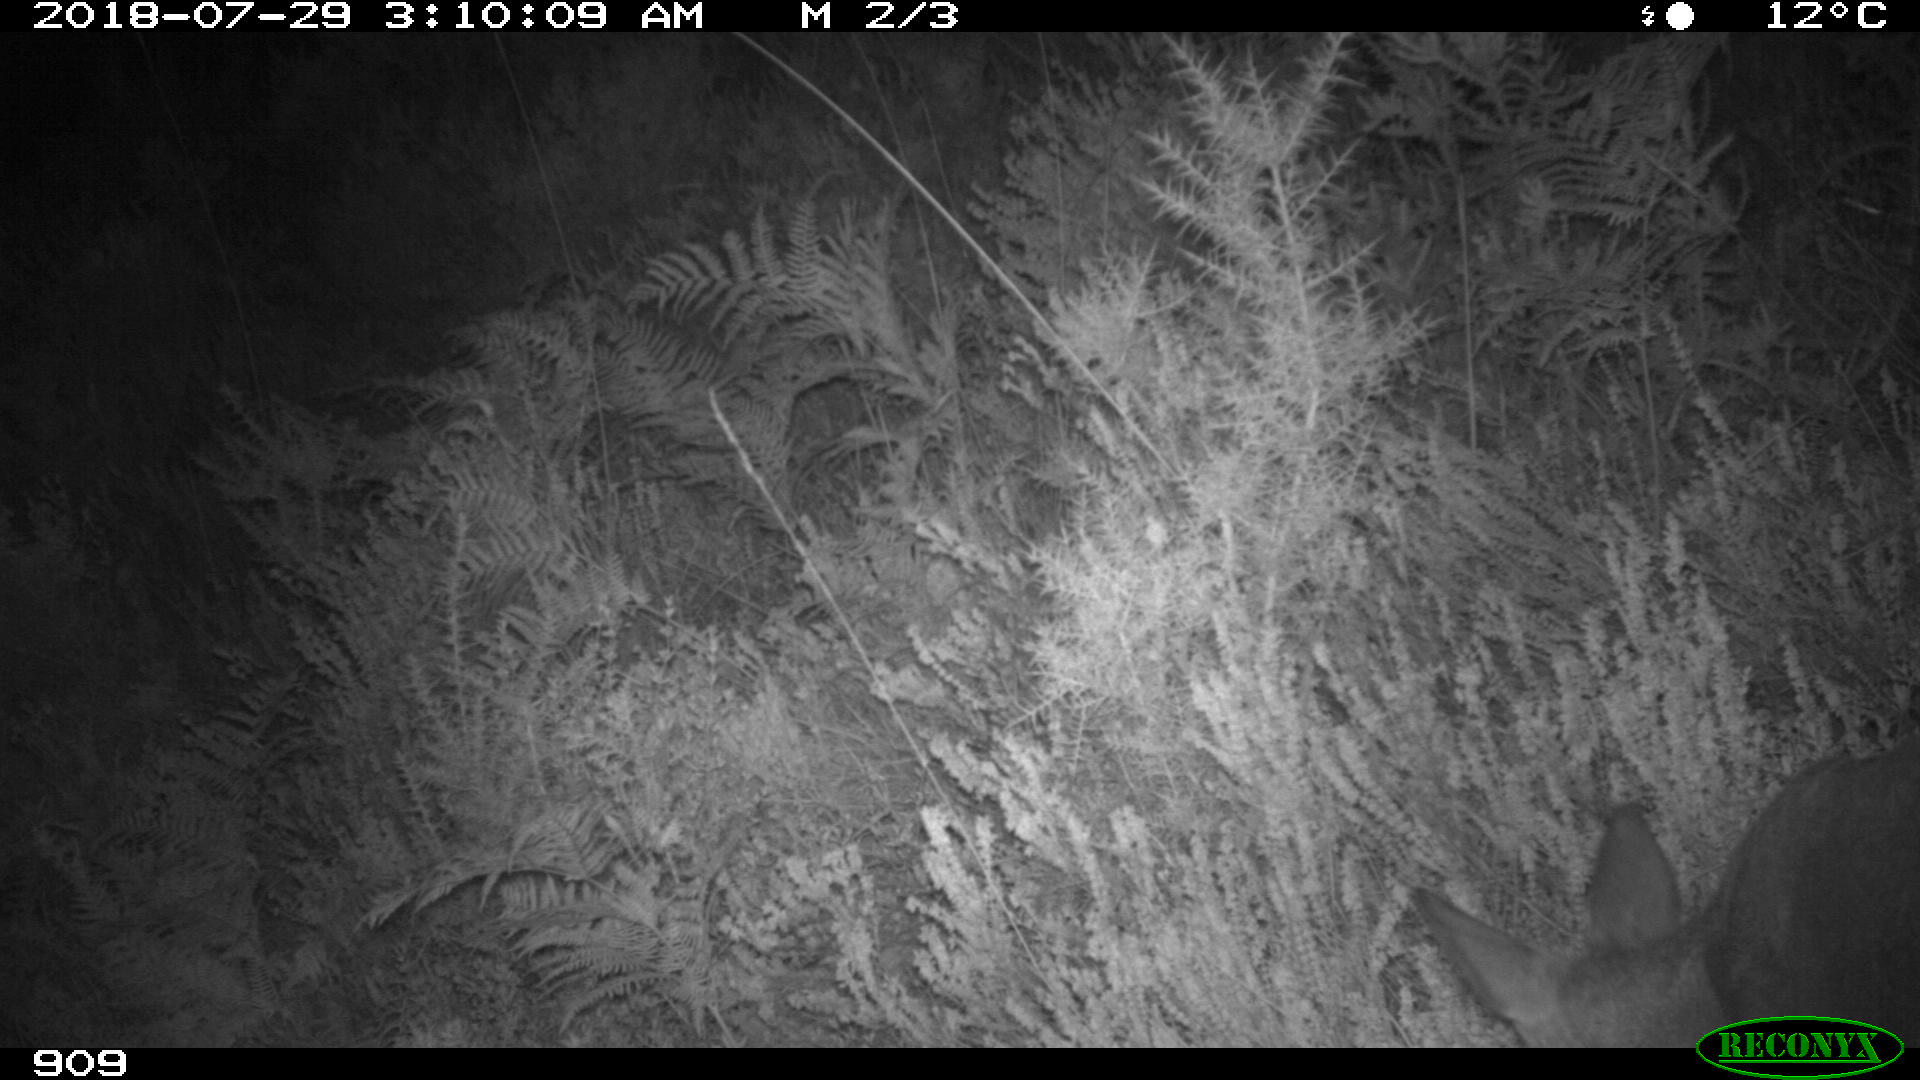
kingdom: Animalia
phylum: Chordata
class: Mammalia
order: Artiodactyla
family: Cervidae
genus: Capreolus
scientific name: Capreolus capreolus
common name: Western roe deer
